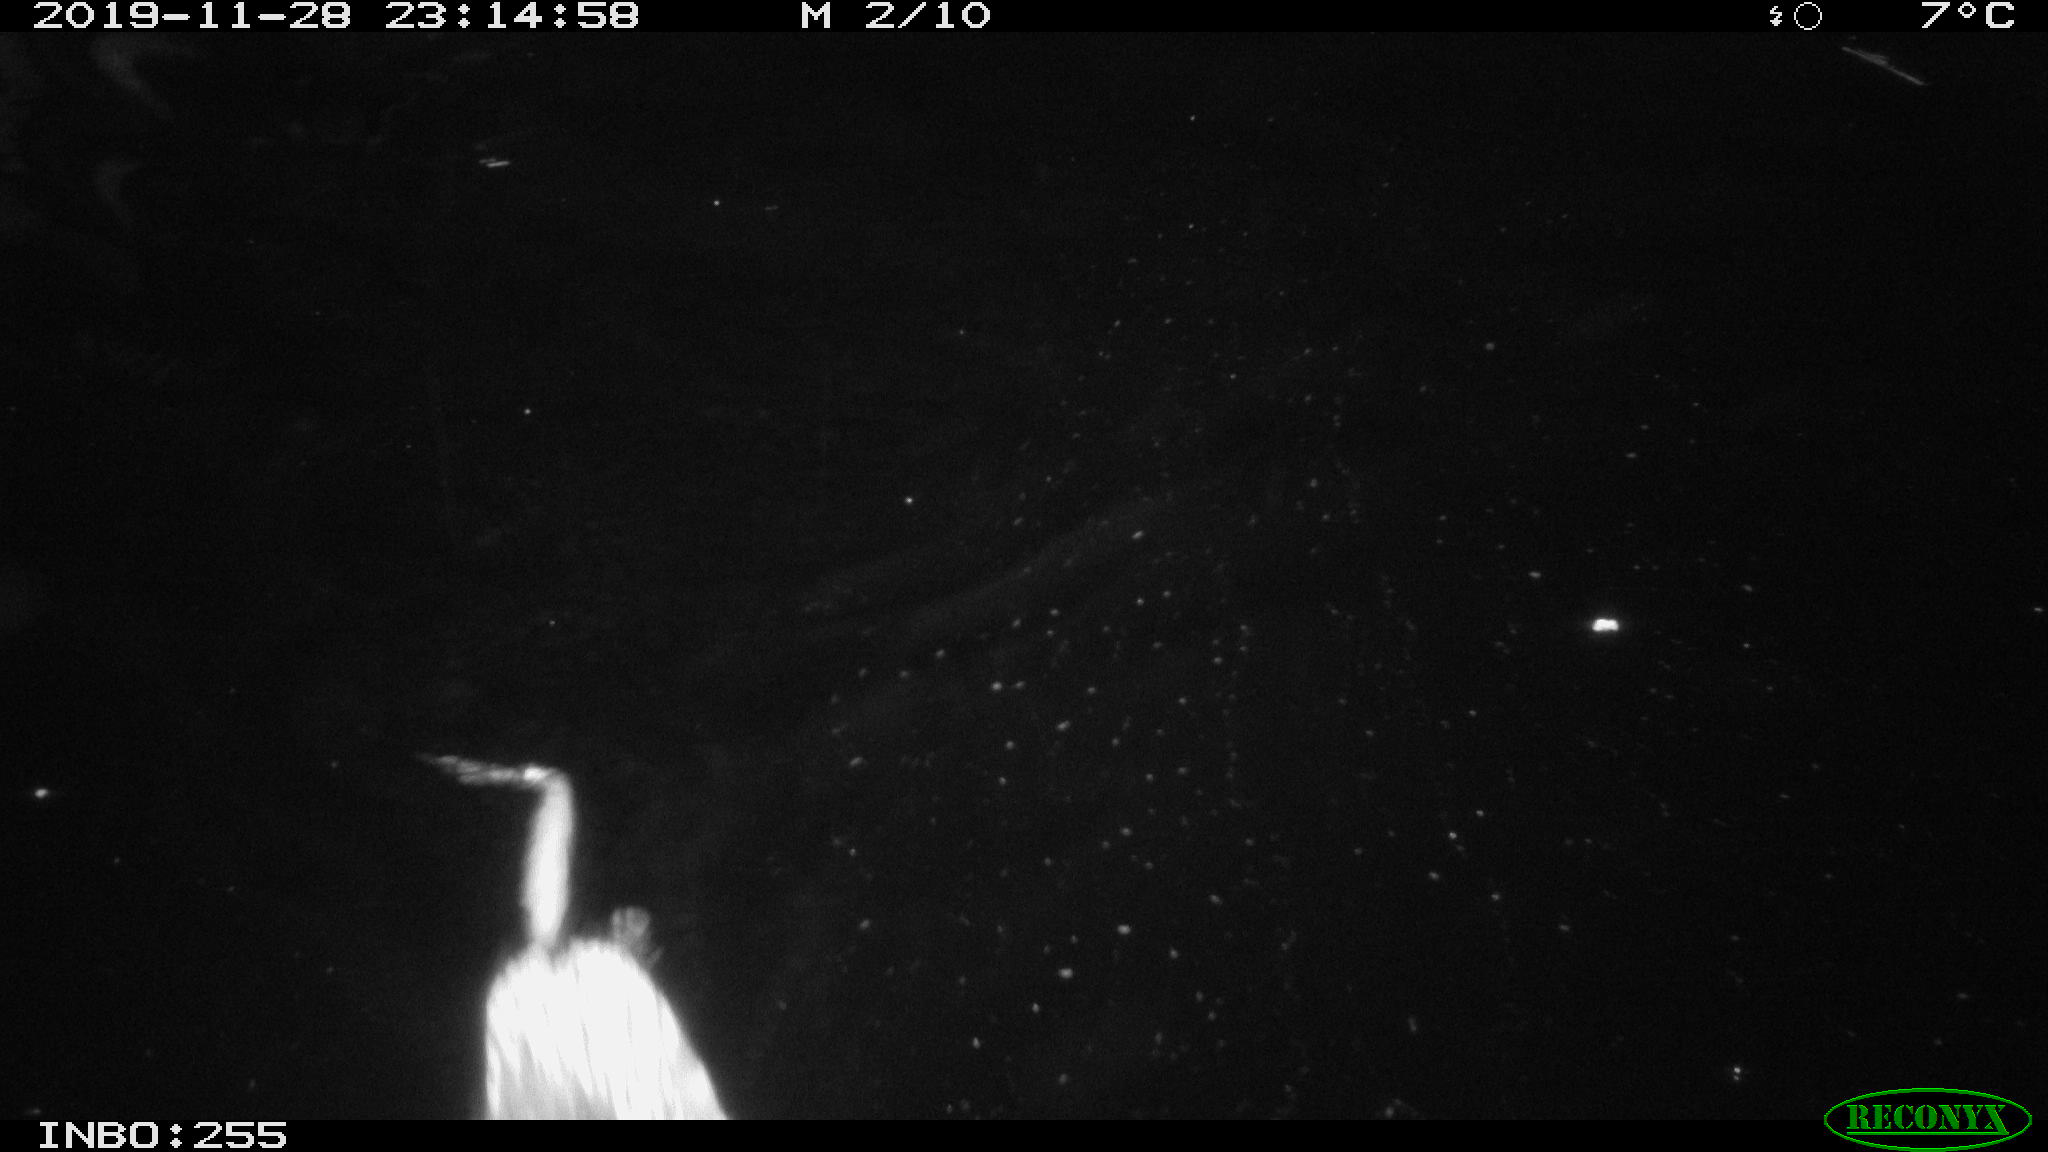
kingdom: Animalia
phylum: Chordata
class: Mammalia
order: Rodentia
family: Cricetidae
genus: Ondatra
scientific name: Ondatra zibethicus
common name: Muskrat
